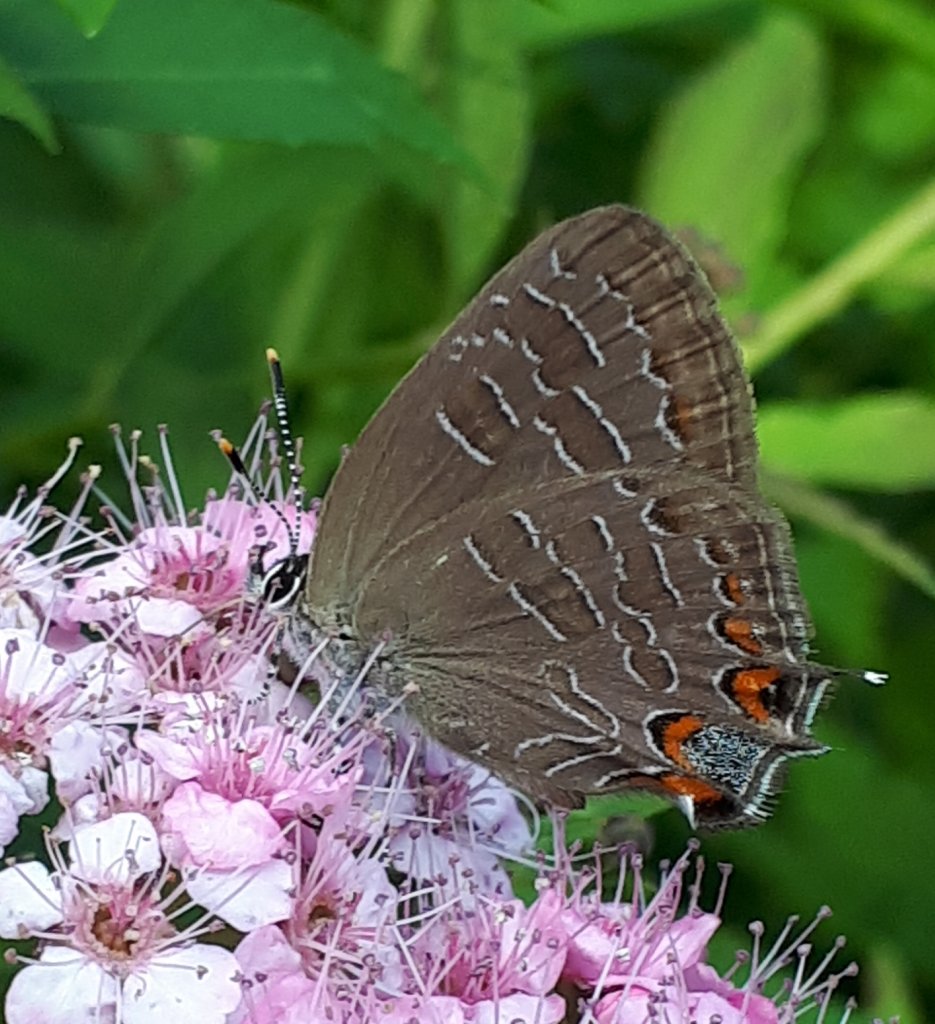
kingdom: Animalia
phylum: Arthropoda
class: Insecta
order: Lepidoptera
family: Lycaenidae
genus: Satyrium
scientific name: Satyrium liparops
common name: Striped Hairstreak
